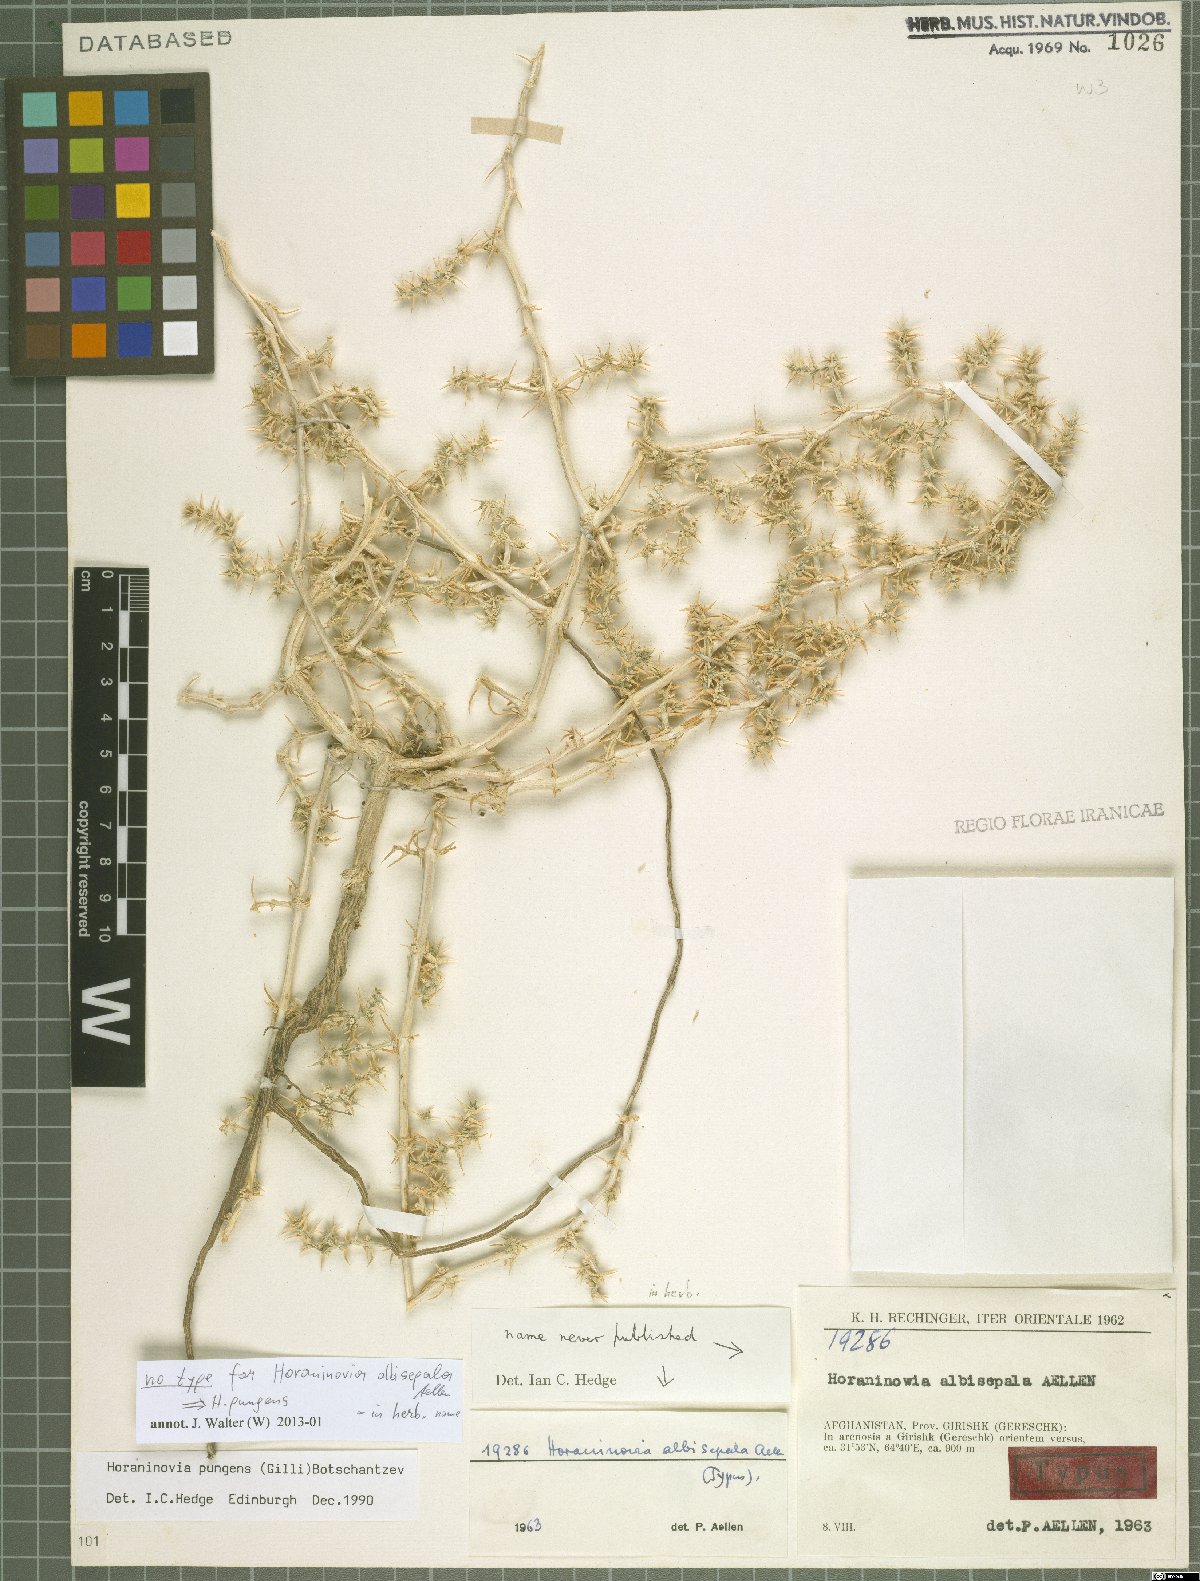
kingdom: Plantae
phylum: Tracheophyta
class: Magnoliopsida
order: Caryophyllales
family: Amaranthaceae
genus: Horaninovia
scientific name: Horaninovia pungens
